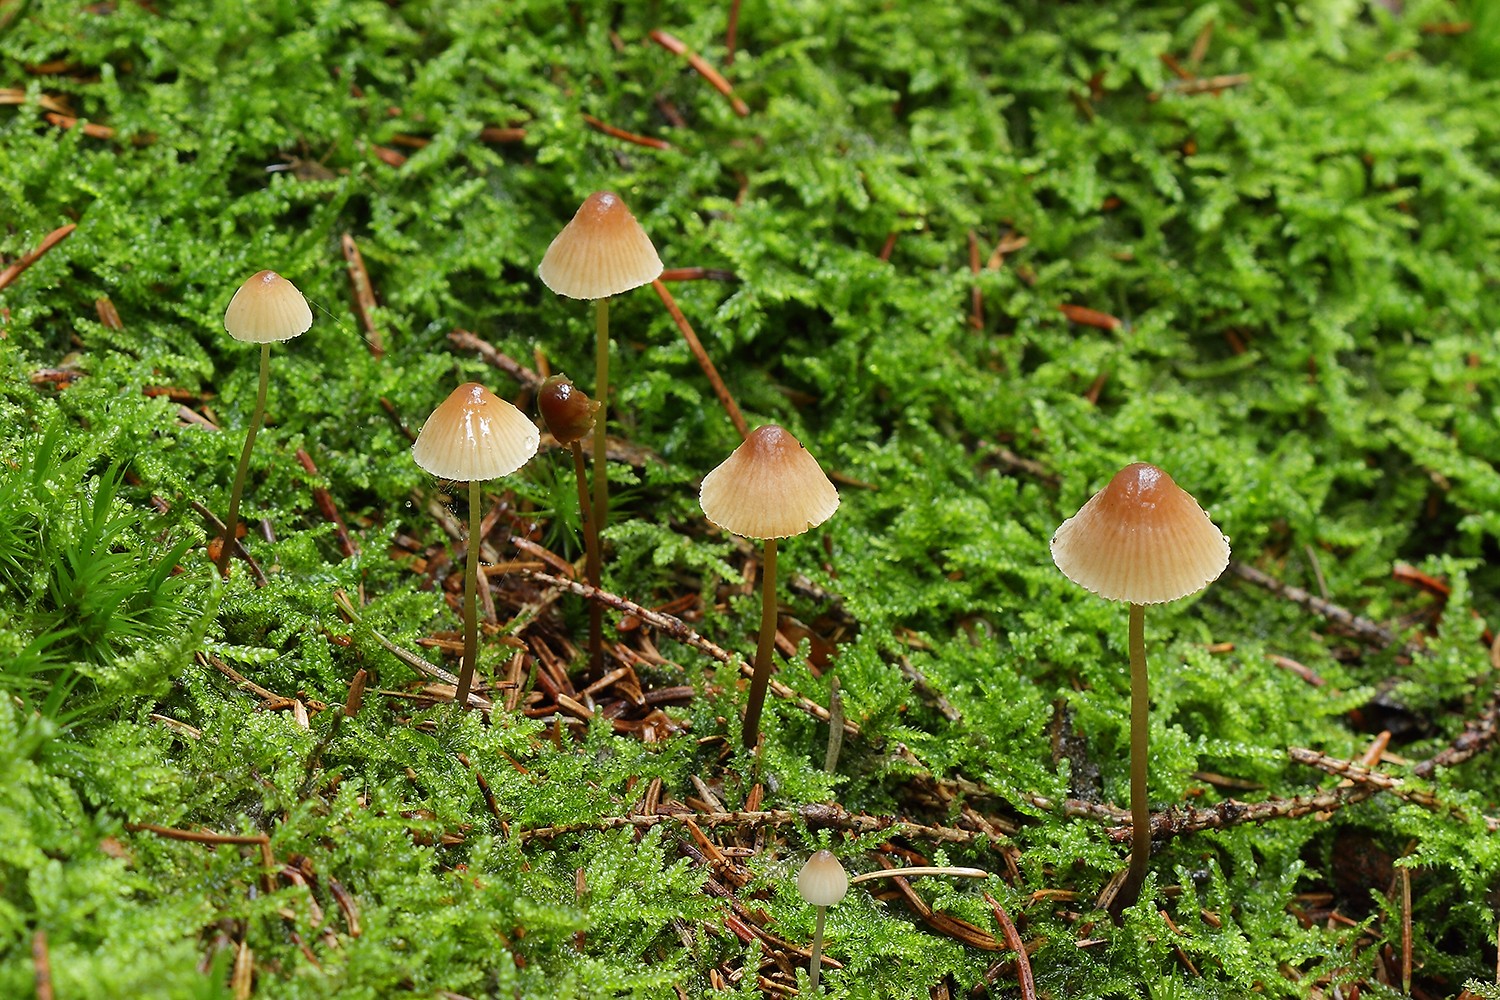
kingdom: Fungi
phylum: Basidiomycota
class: Agaricomycetes
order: Agaricales
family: Mycenaceae
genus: Mycena
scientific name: Mycena metata
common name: rødlig huesvamp
